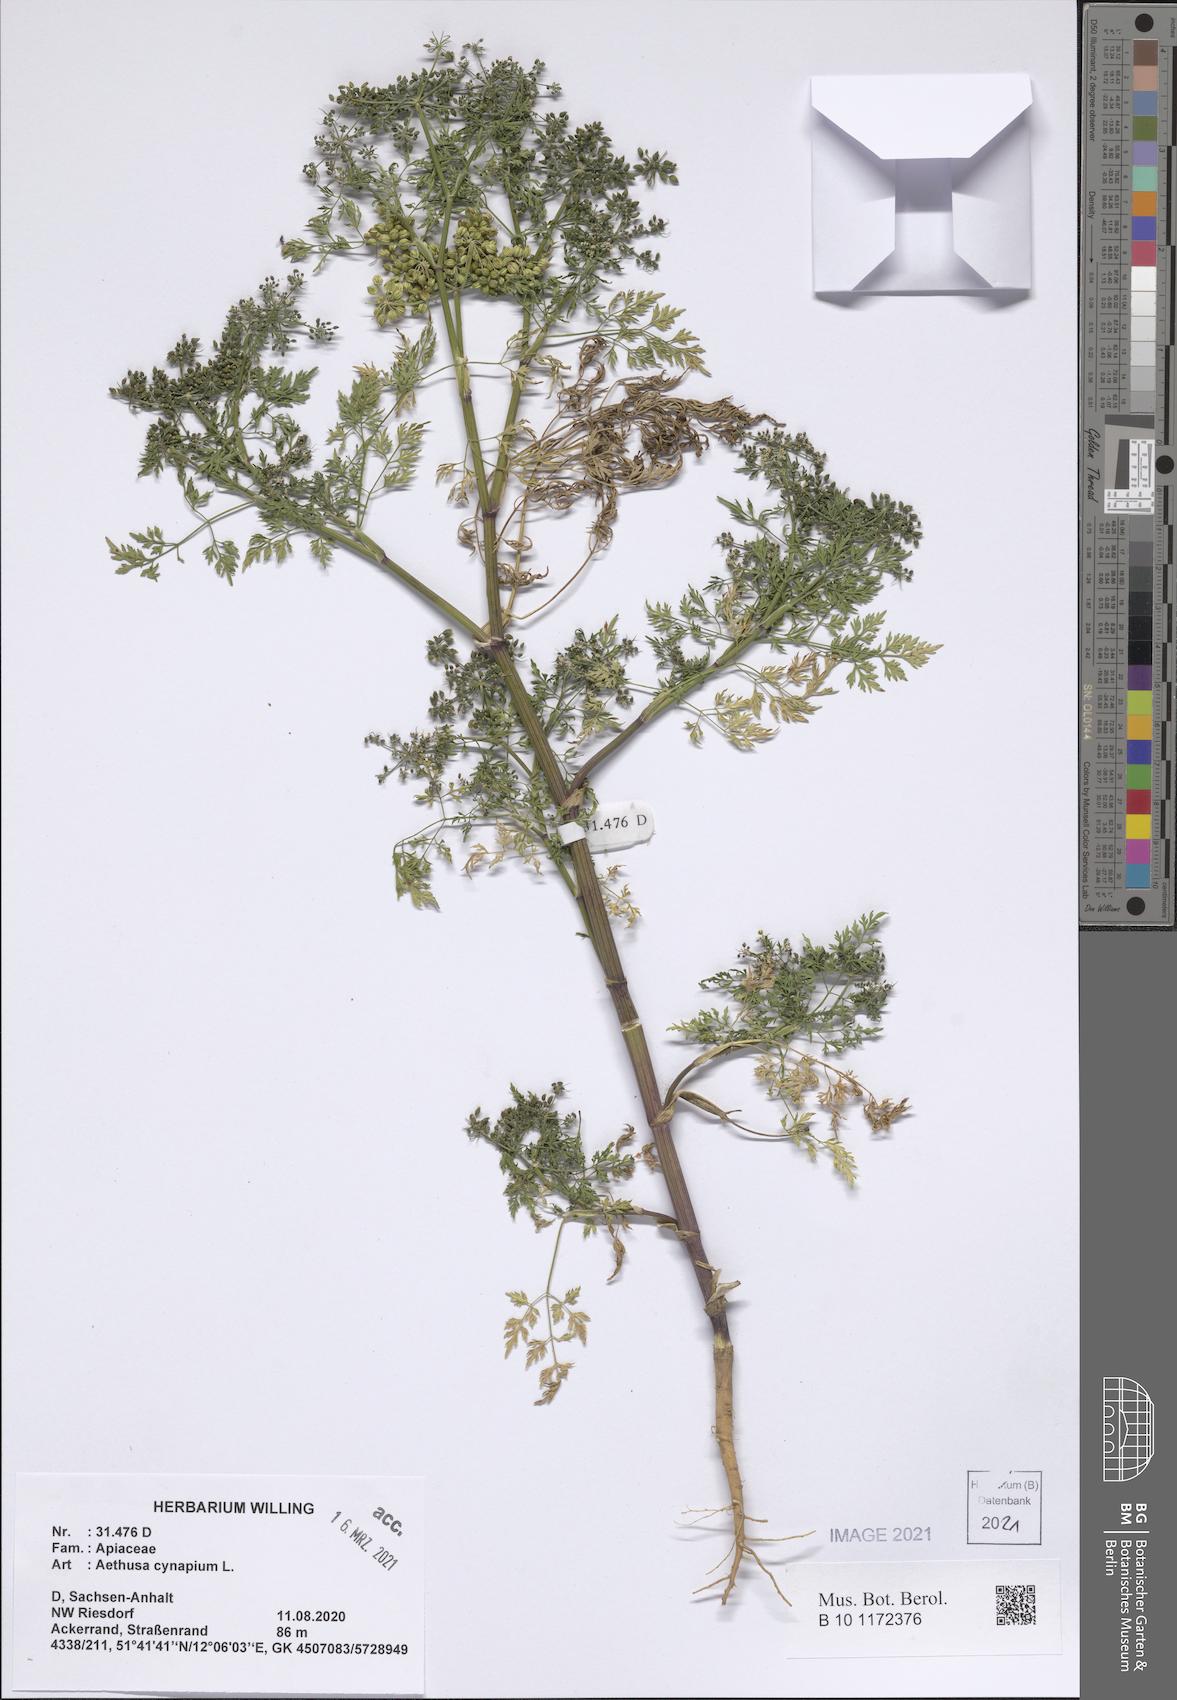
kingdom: Plantae
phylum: Tracheophyta
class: Magnoliopsida
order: Apiales
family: Apiaceae
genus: Aethusa
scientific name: Aethusa cynapium
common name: Fool's parsley
